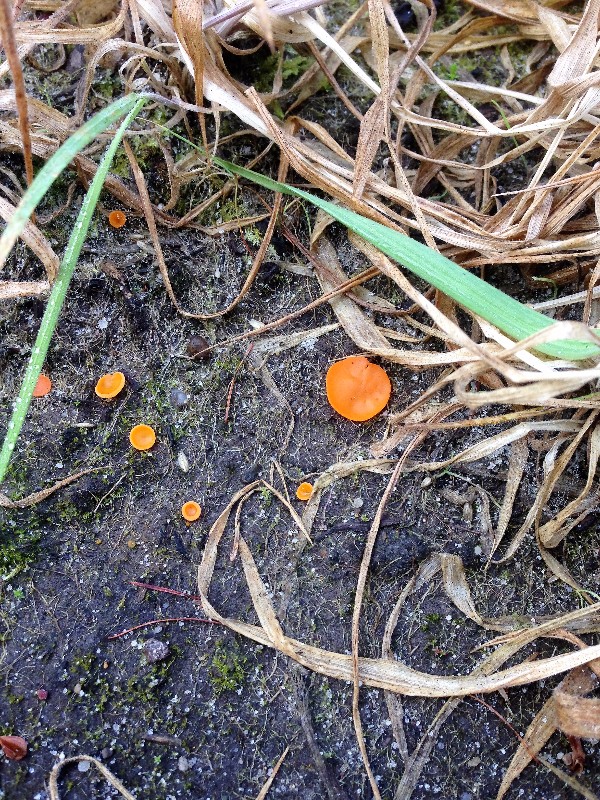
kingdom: Fungi
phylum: Ascomycota
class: Pezizomycetes
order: Pezizales
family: Pyronemataceae
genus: Aleuria
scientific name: Aleuria aurantia
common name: almindelig orangebæger
